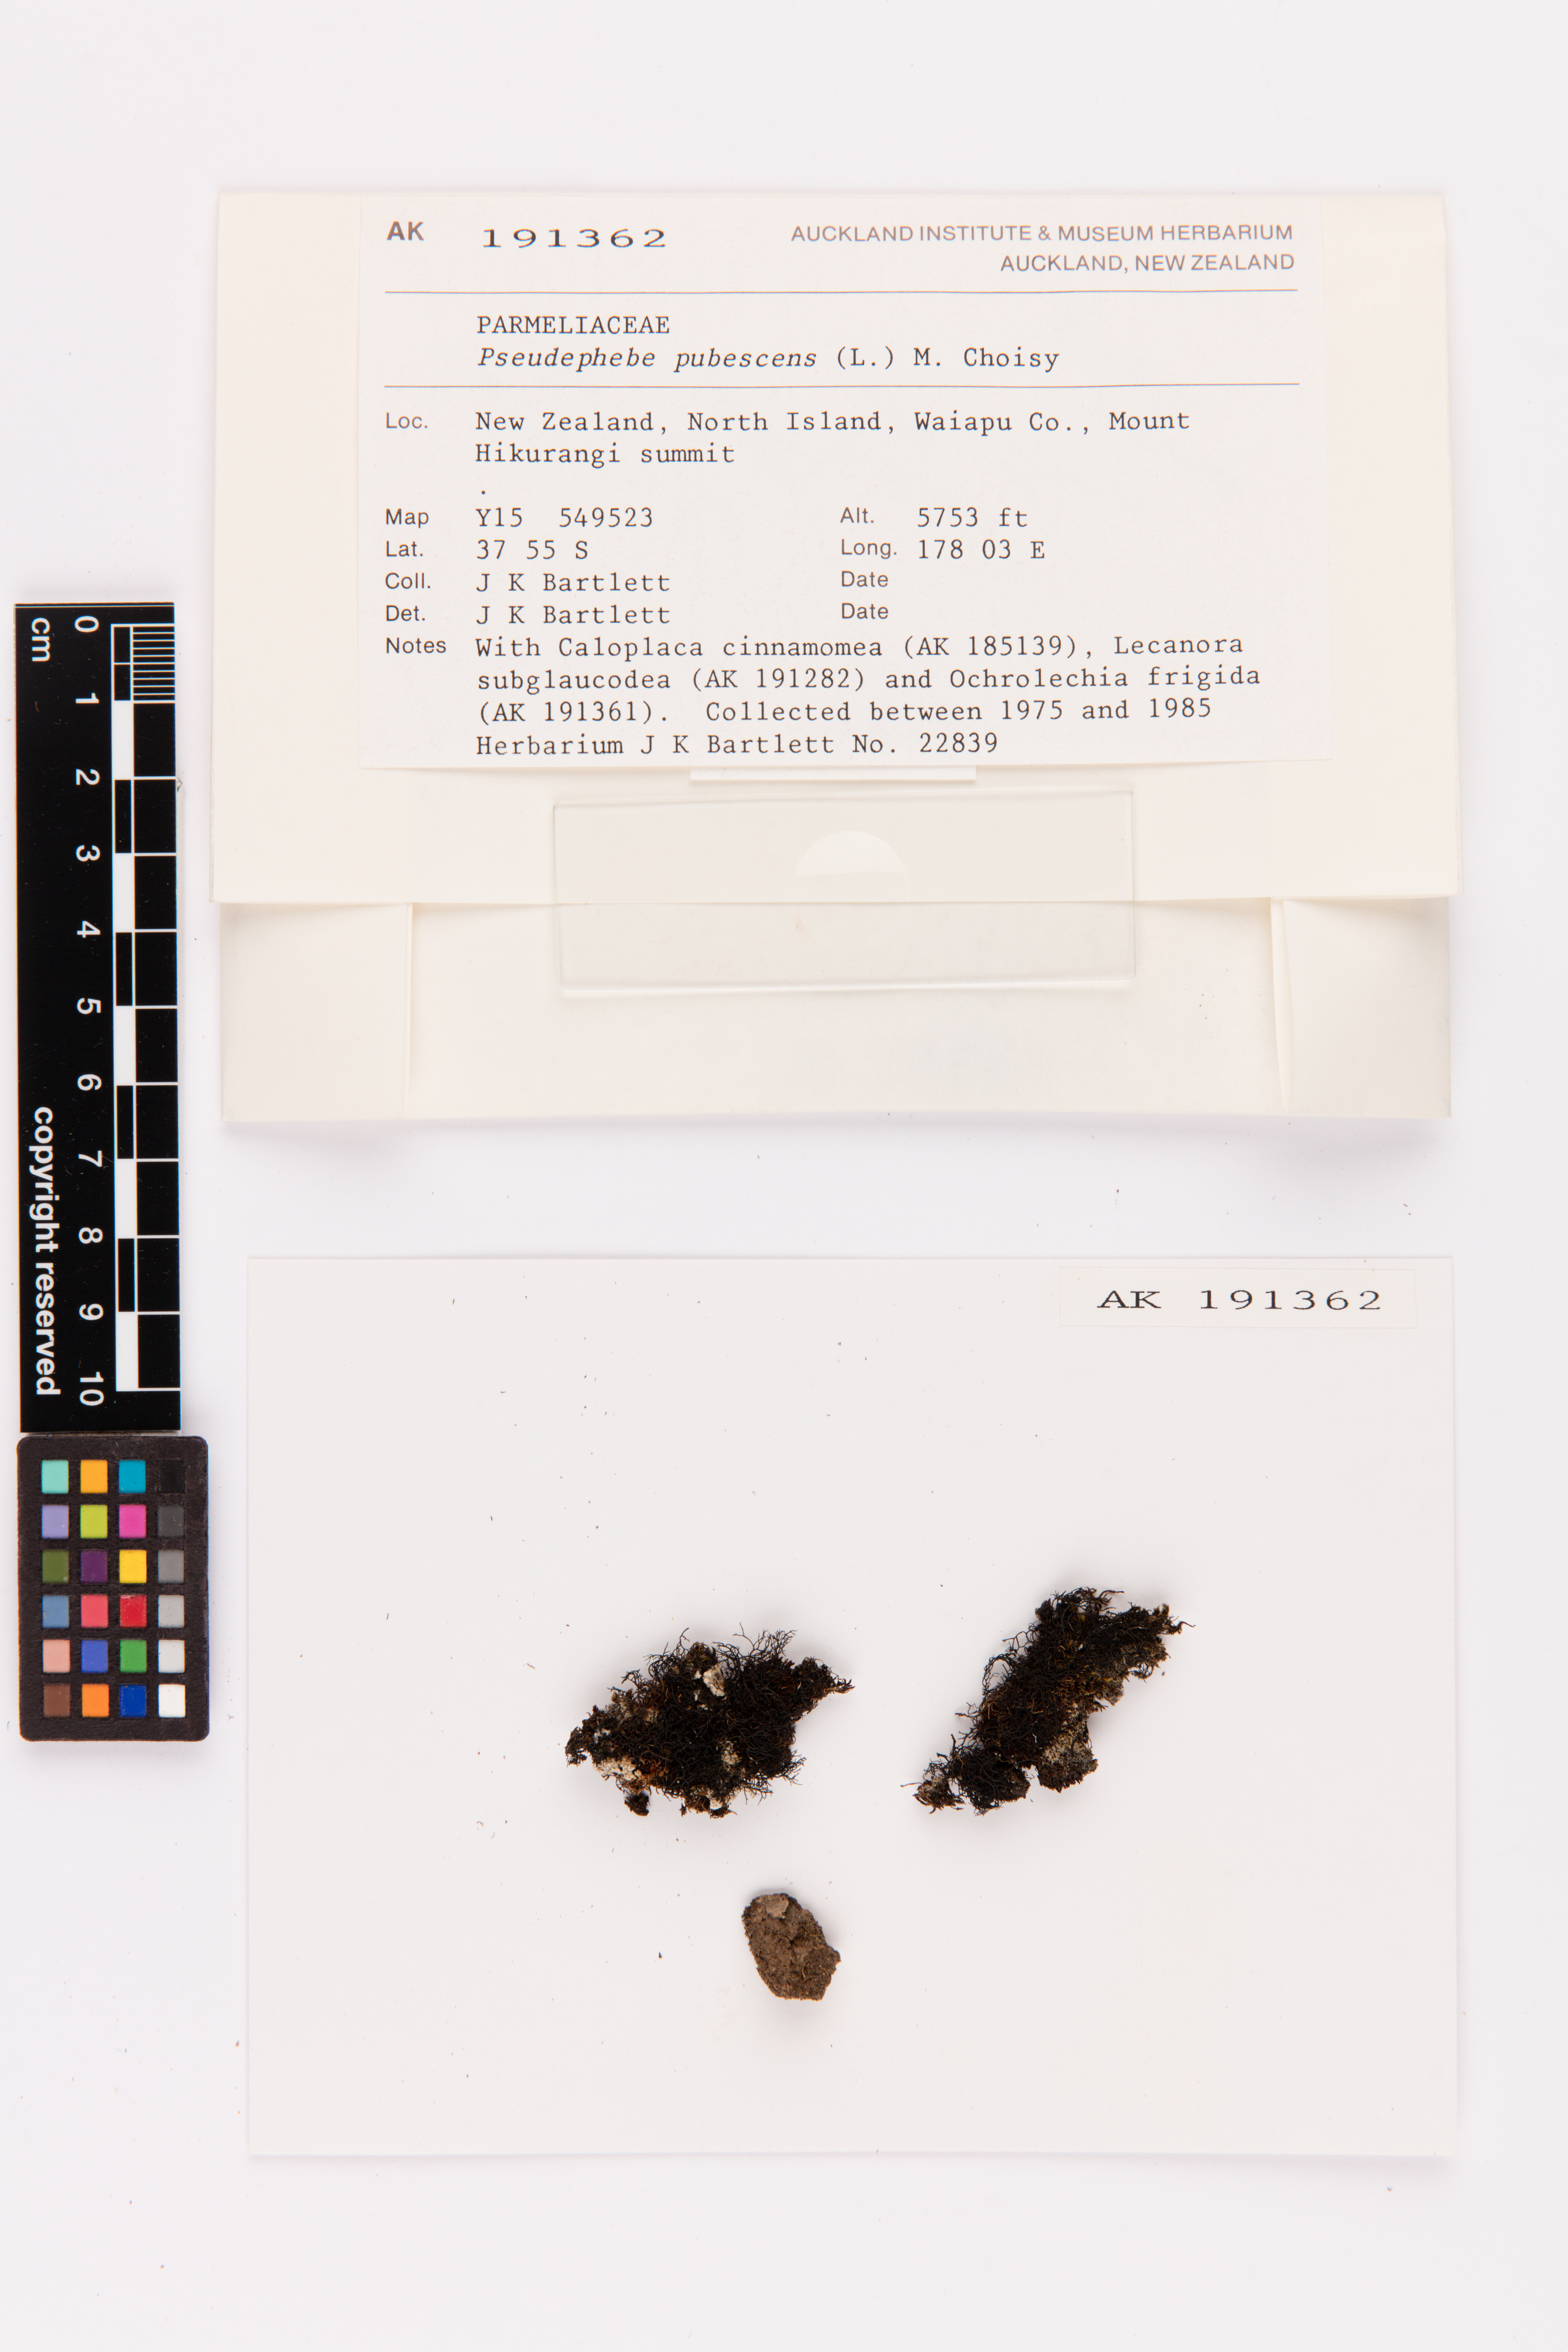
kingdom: Fungi
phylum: Ascomycota
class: Lecanoromycetes
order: Lecanorales
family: Parmeliaceae
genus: Pseudephebe
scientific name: Pseudephebe pubescens
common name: Fine rockwool lichen
